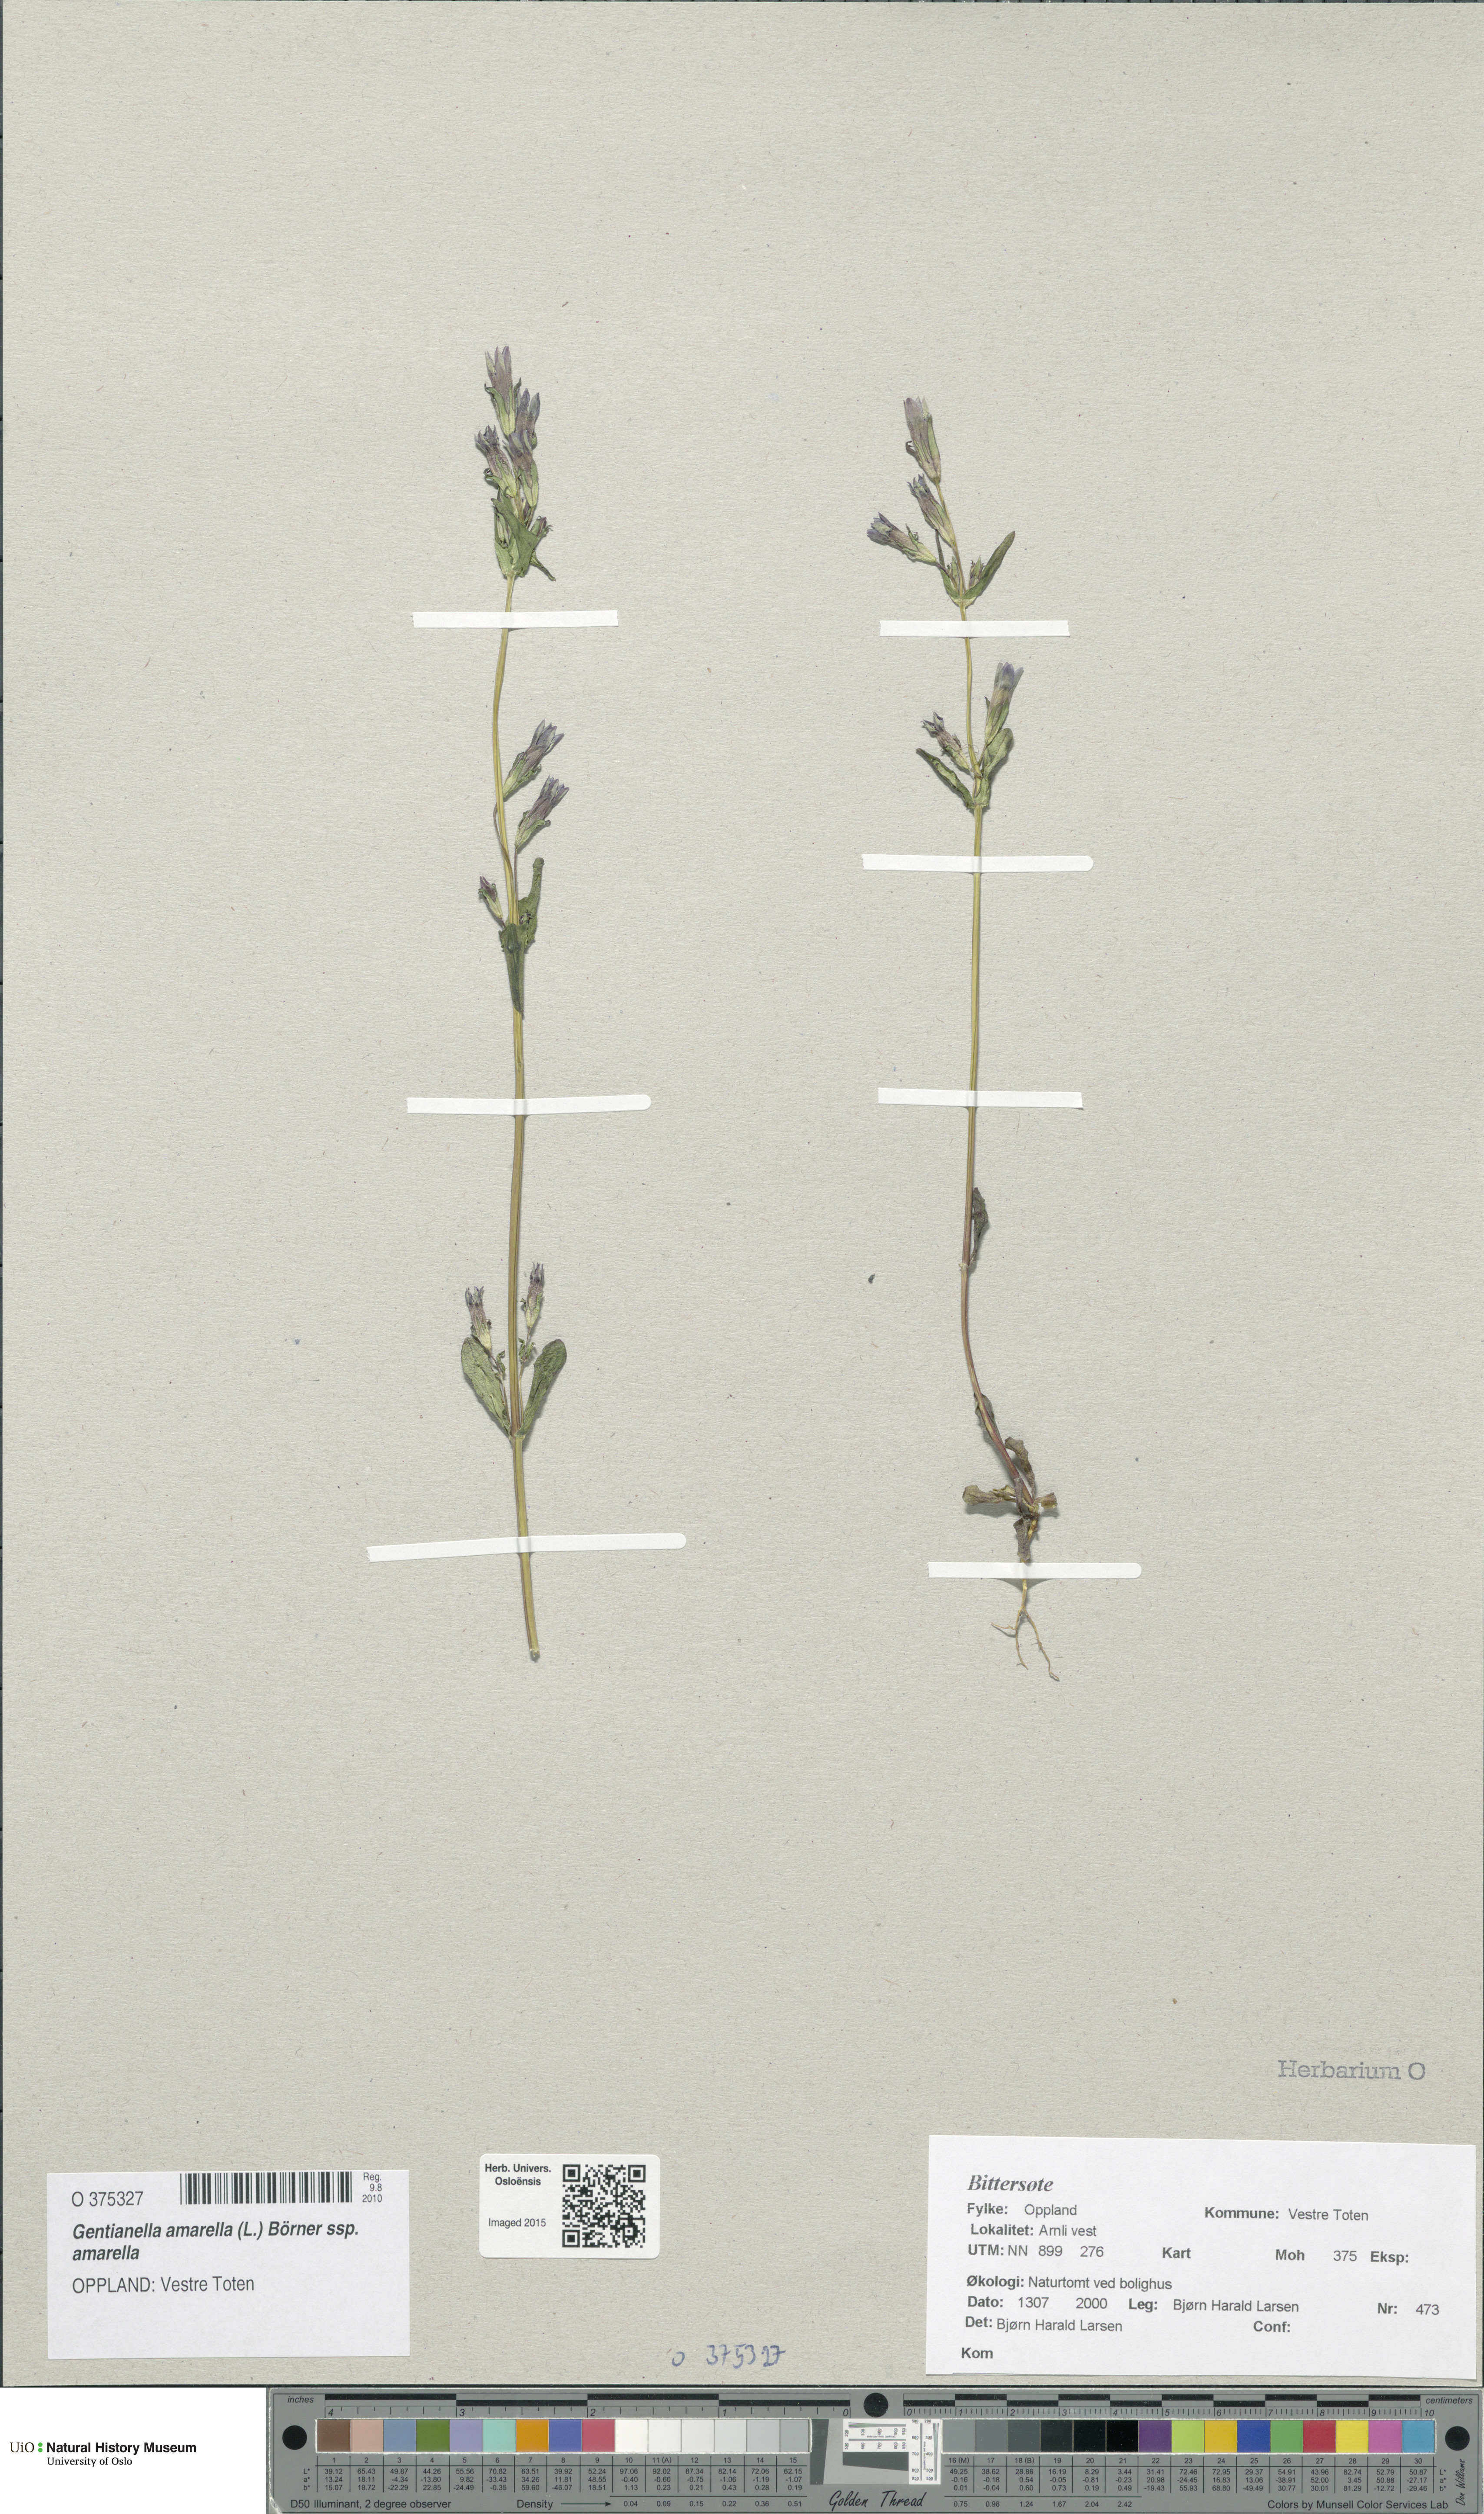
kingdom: Plantae
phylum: Tracheophyta
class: Magnoliopsida
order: Gentianales
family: Gentianaceae
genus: Gentianella
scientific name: Gentianella amarella
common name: Autumn gentian
